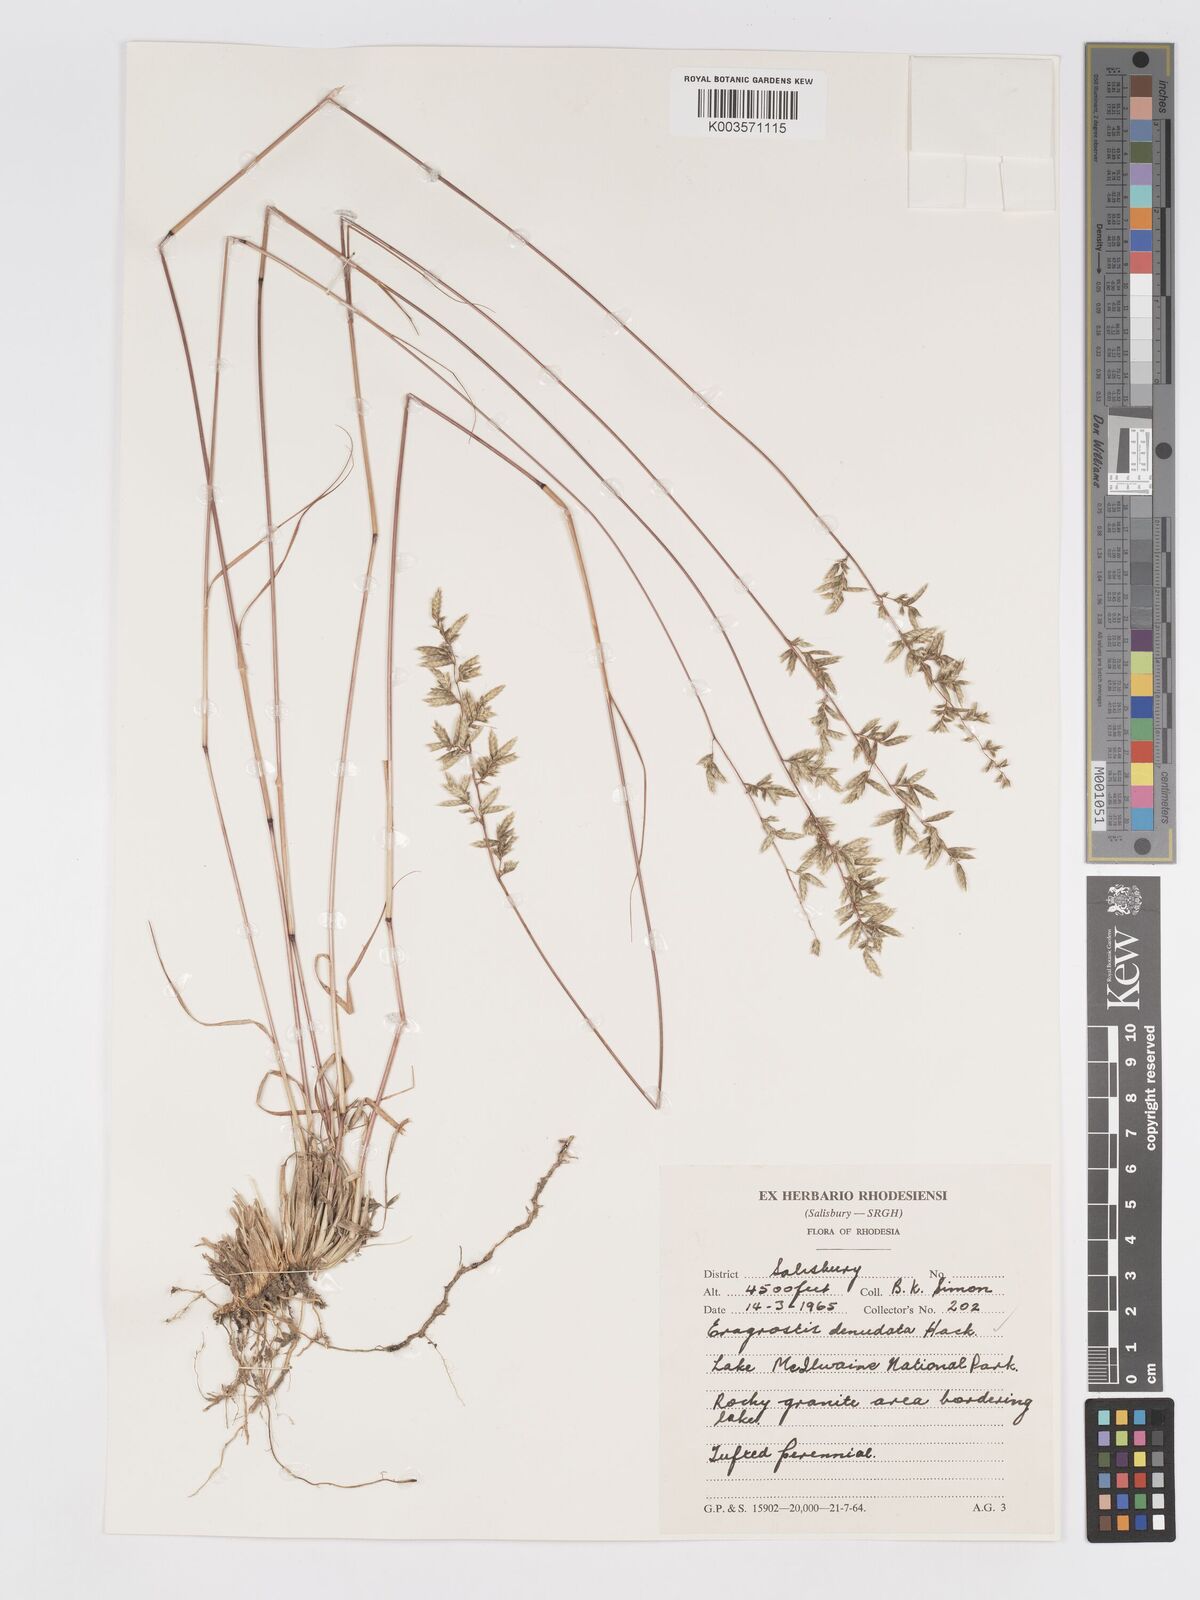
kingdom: Plantae
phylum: Tracheophyta
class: Liliopsida
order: Poales
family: Poaceae
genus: Eragrostis
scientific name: Eragrostis nindensis
